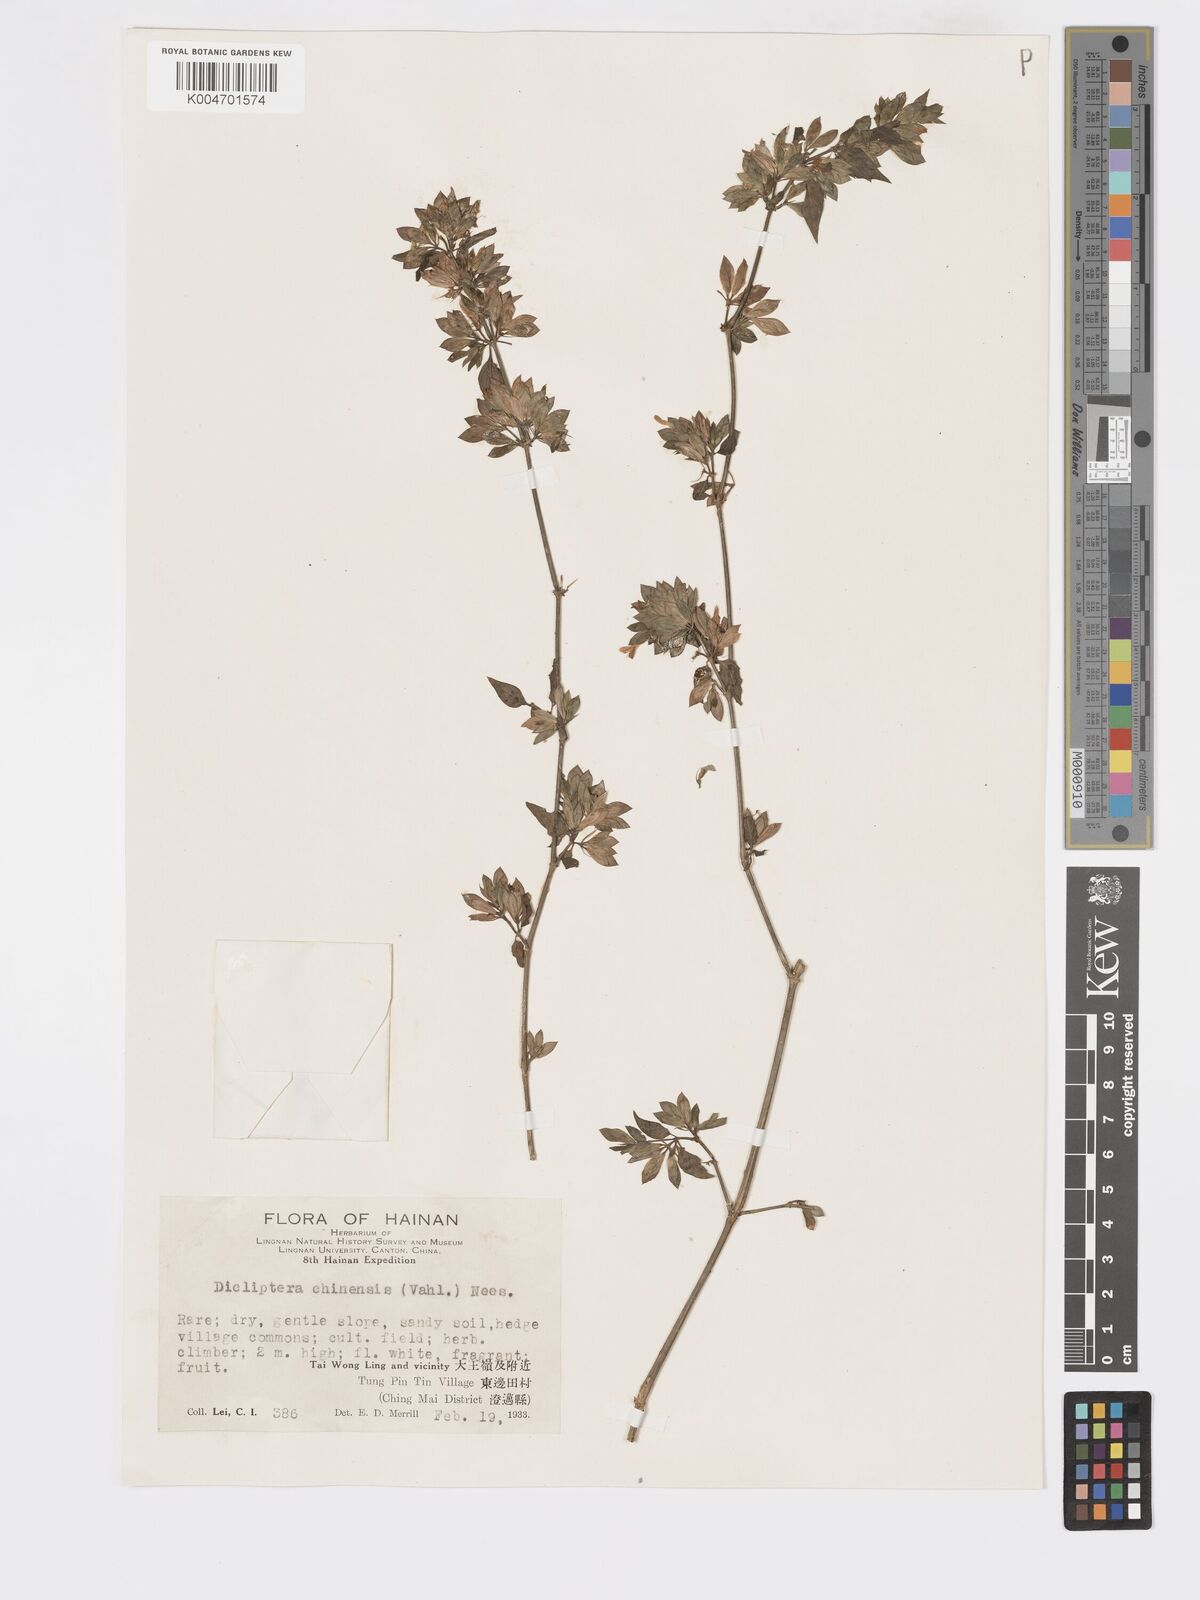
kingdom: Plantae
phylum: Tracheophyta
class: Magnoliopsida
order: Lamiales
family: Acanthaceae
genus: Dicliptera
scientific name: Dicliptera chinensis
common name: Chinese foldwing
